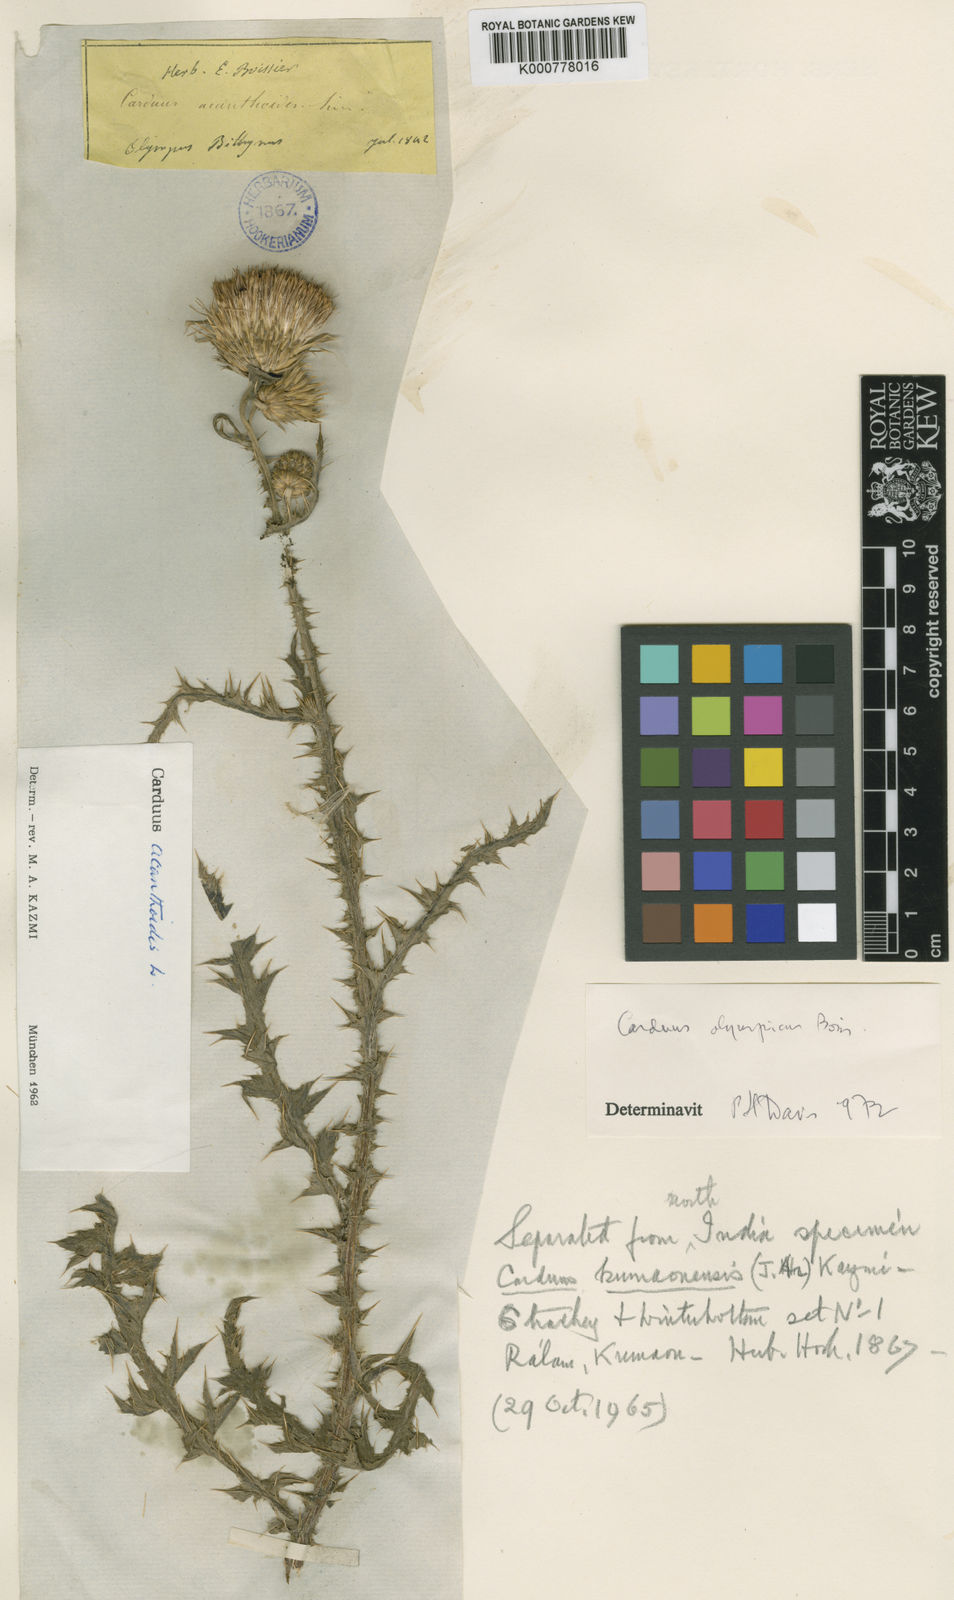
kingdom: Plantae
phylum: Tracheophyta
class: Magnoliopsida
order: Asterales
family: Asteraceae
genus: Carduus
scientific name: Carduus olympicus
